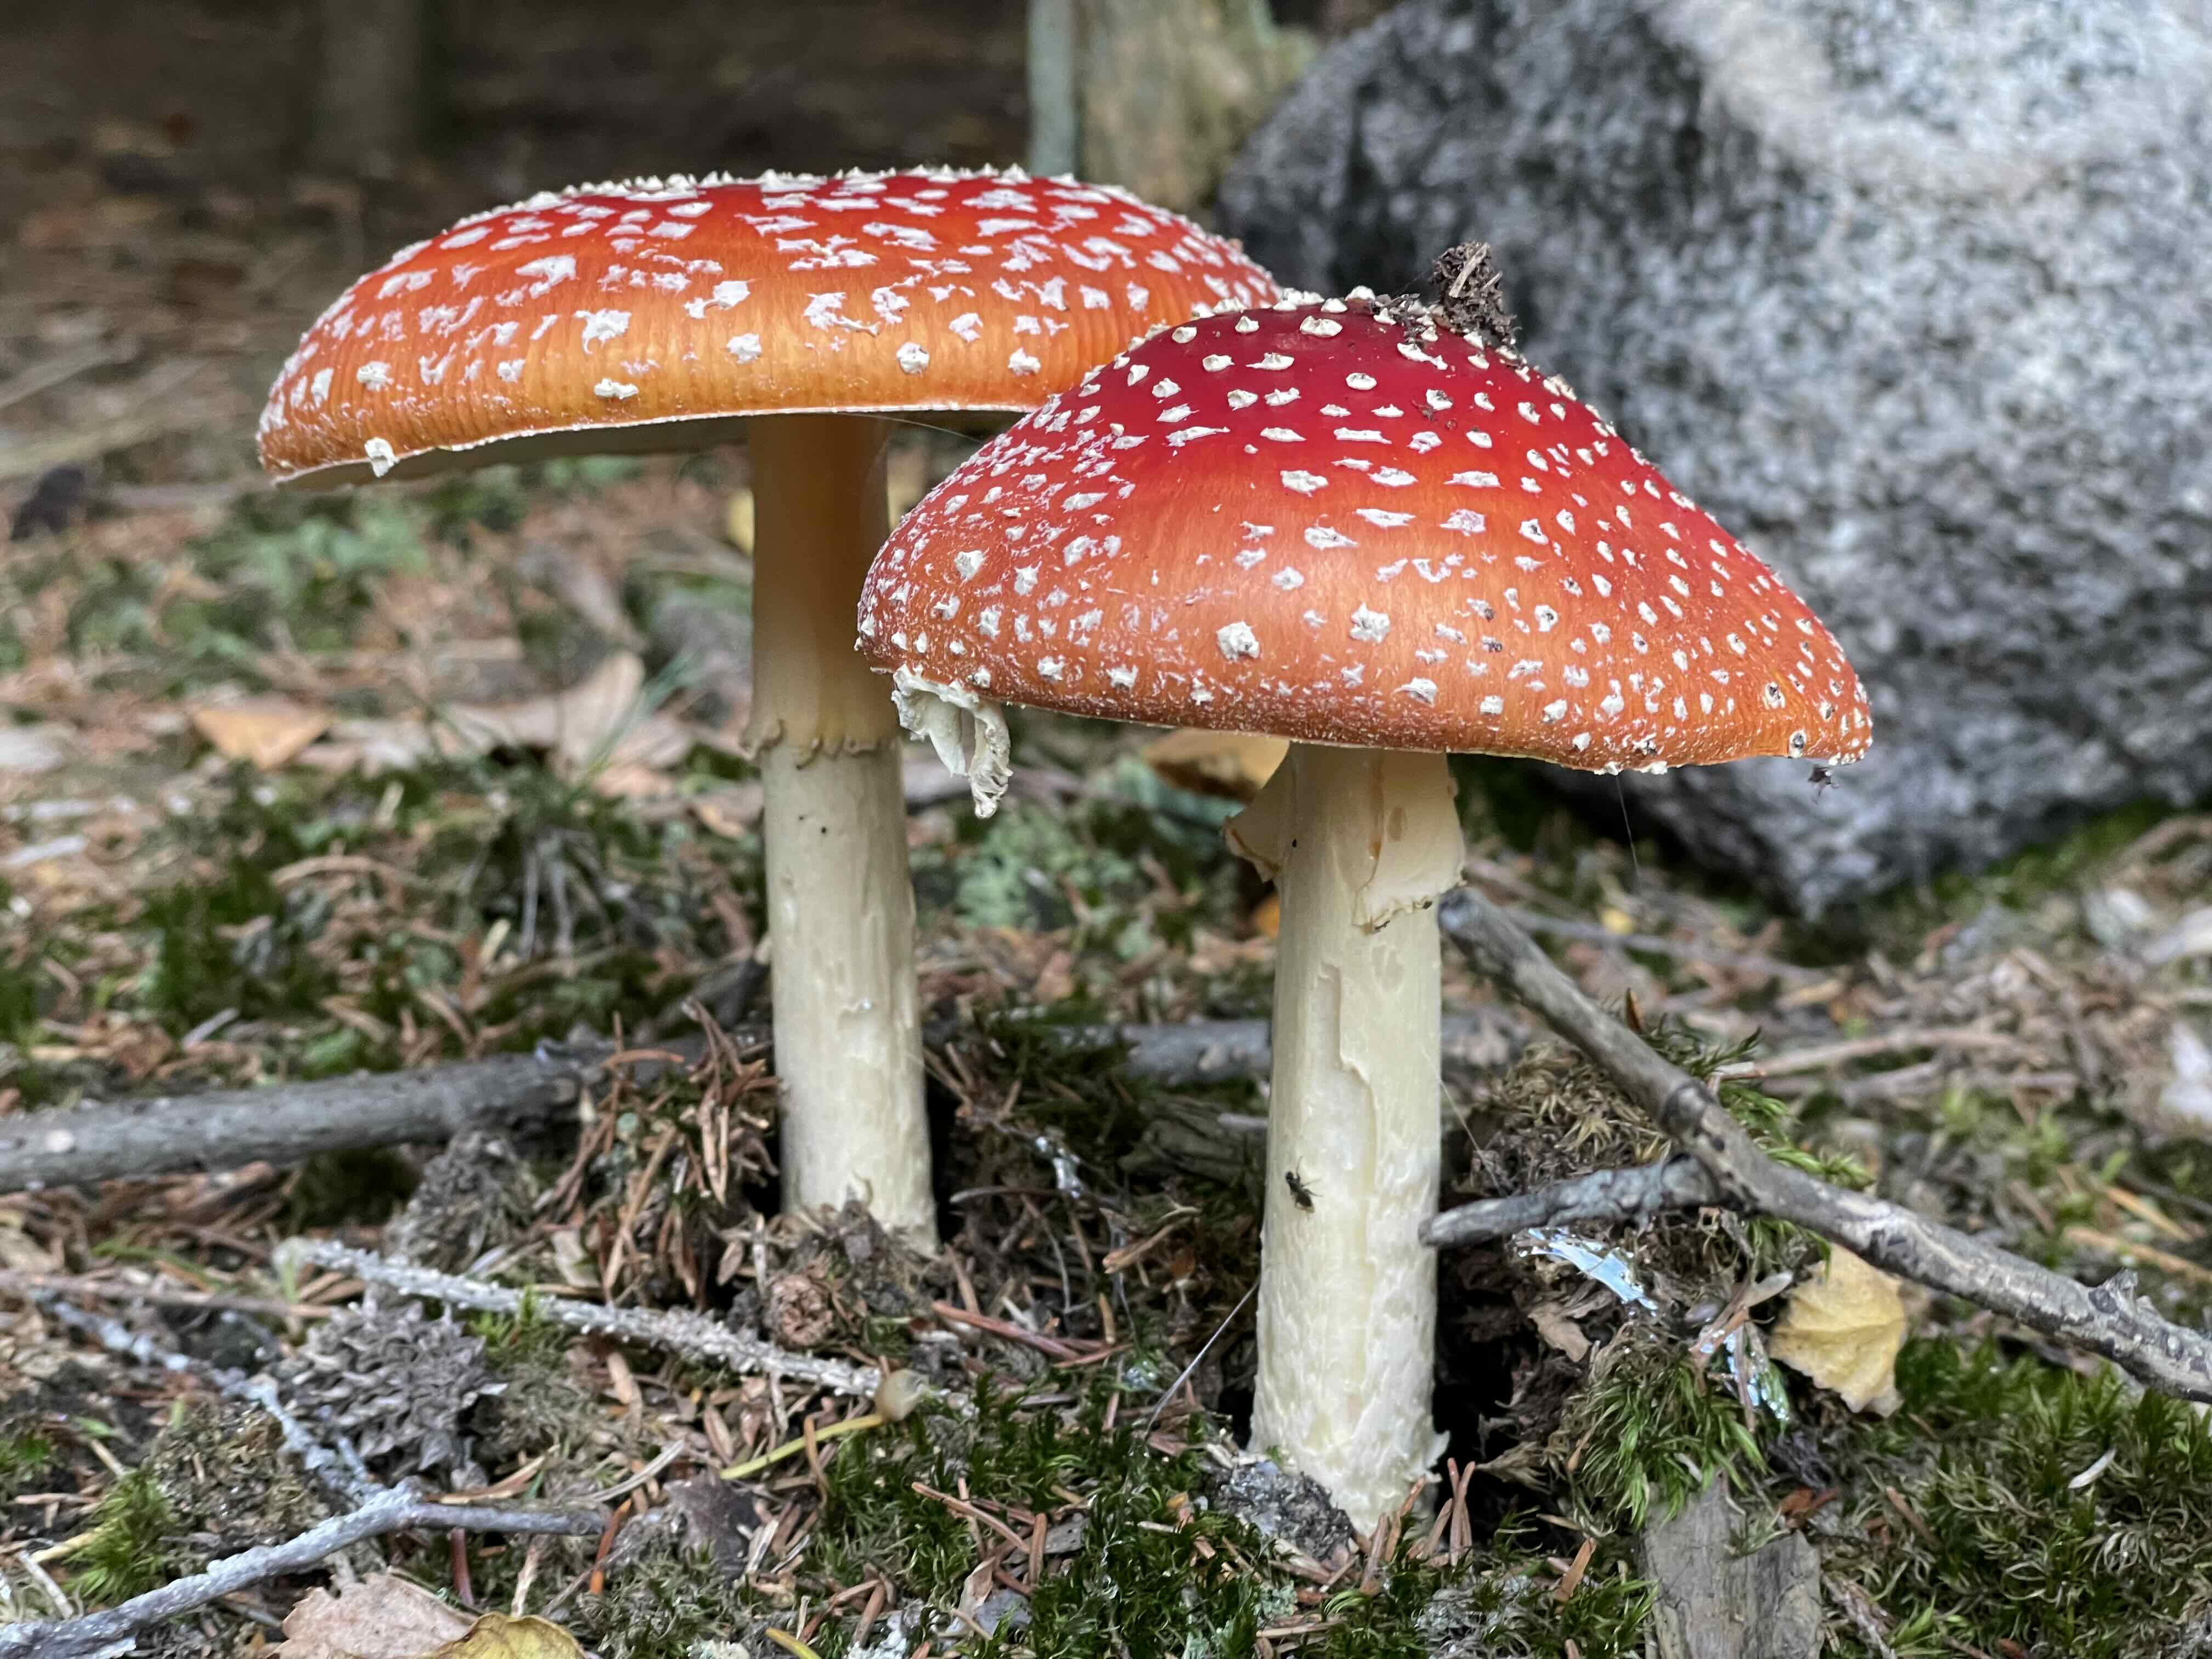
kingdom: Fungi
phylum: Basidiomycota
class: Agaricomycetes
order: Agaricales
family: Amanitaceae
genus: Amanita
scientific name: Amanita muscaria
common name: rød fluesvamp
